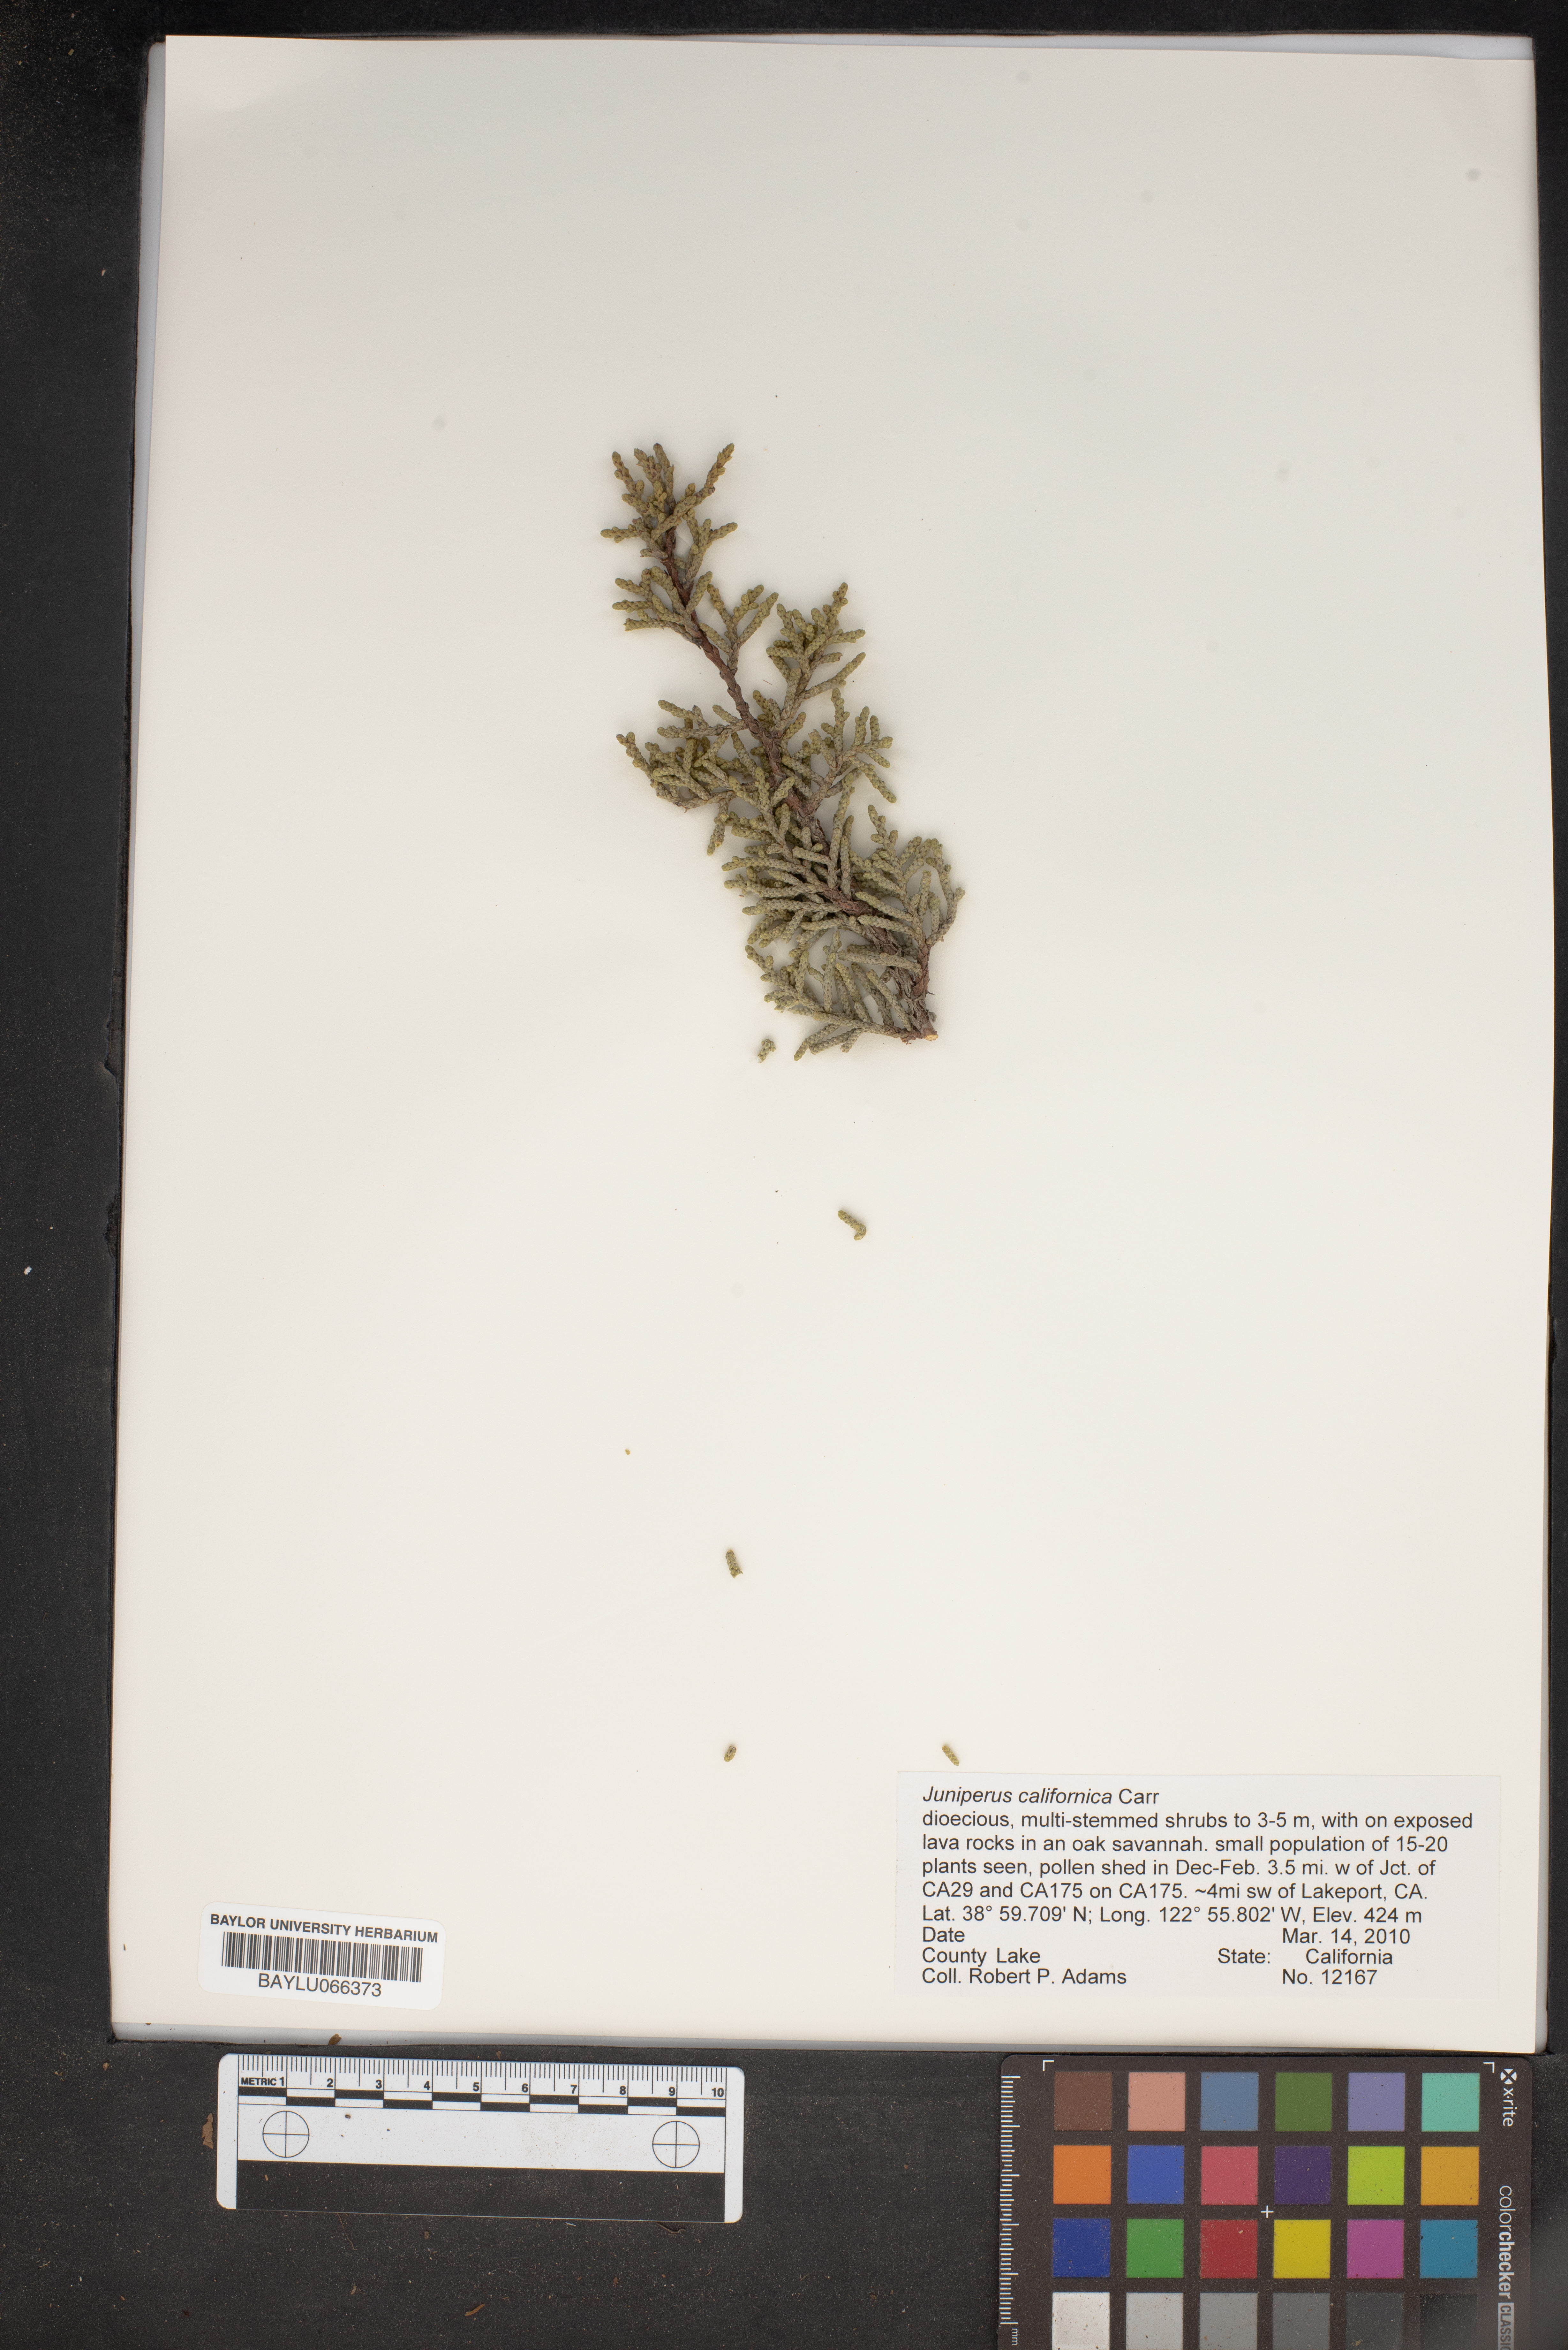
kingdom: Plantae
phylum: Tracheophyta
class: Pinopsida
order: Pinales
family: Cupressaceae
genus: Juniperus
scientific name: Juniperus californica
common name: California juniper
